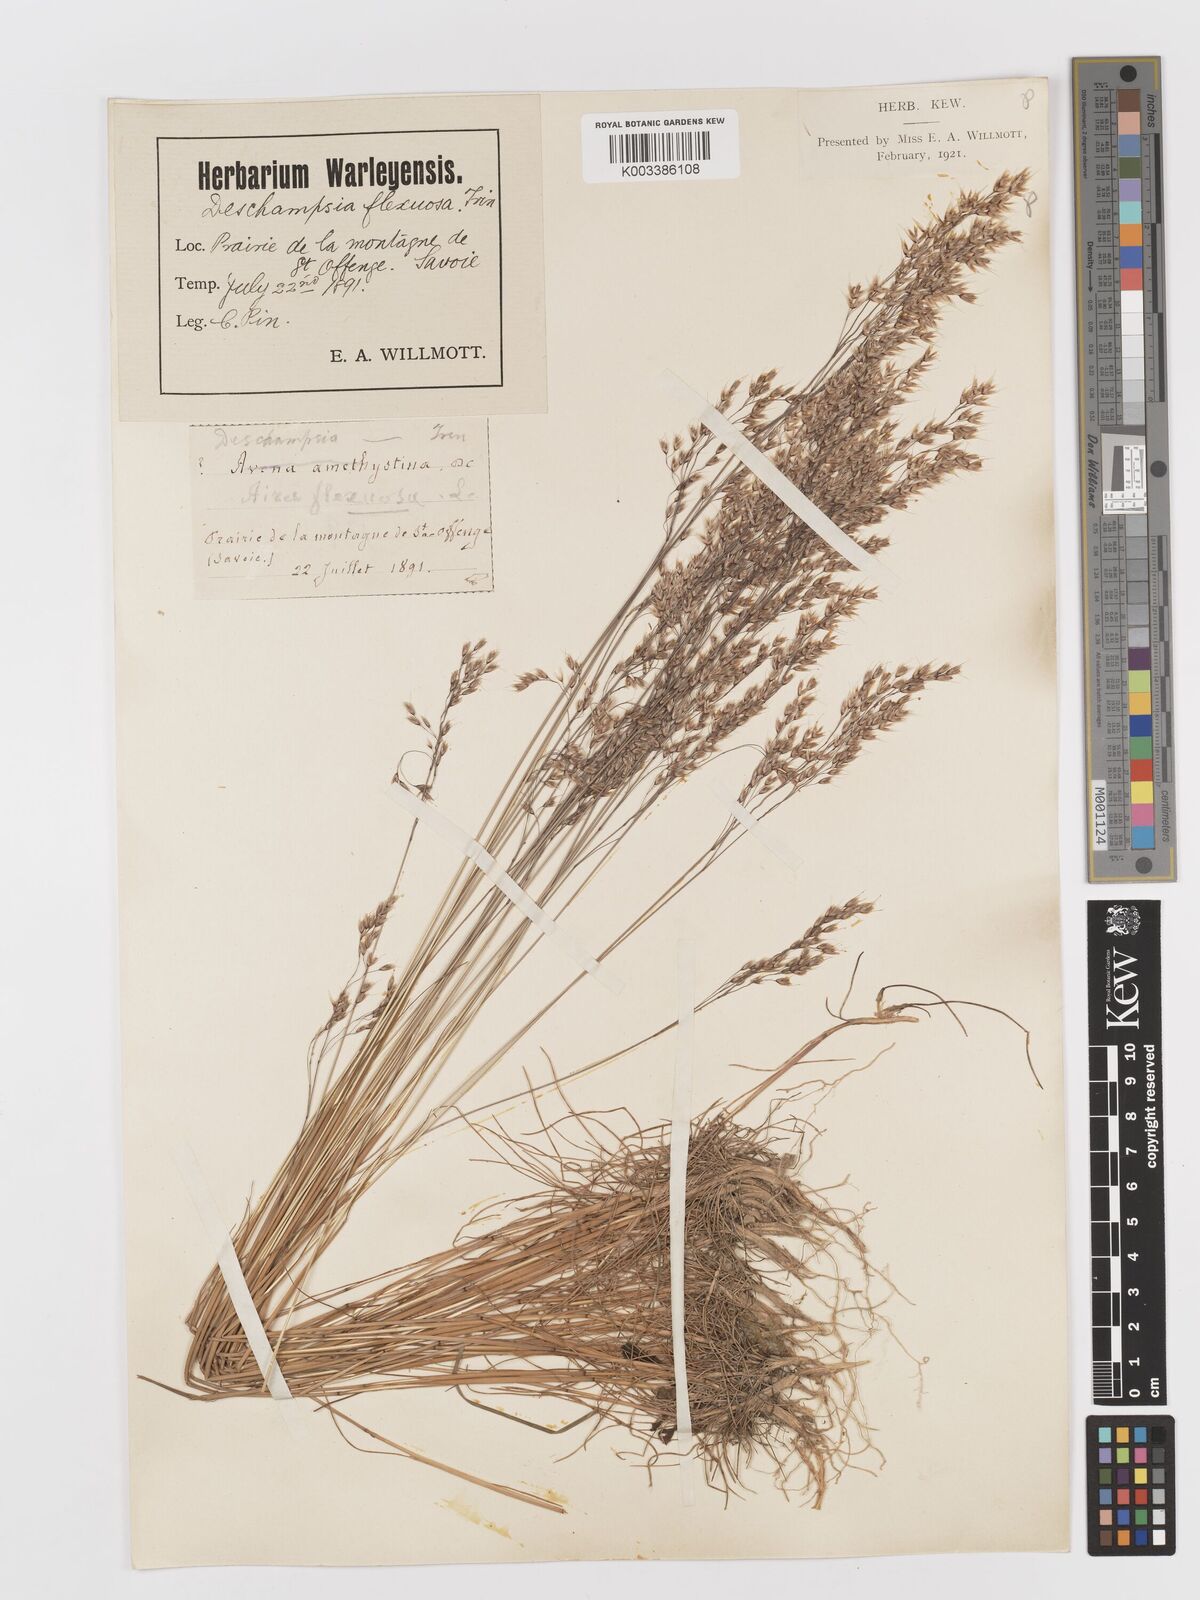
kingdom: Plantae
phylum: Tracheophyta
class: Liliopsida
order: Poales
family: Poaceae
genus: Avenella
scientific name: Avenella flexuosa
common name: Wavy hairgrass
